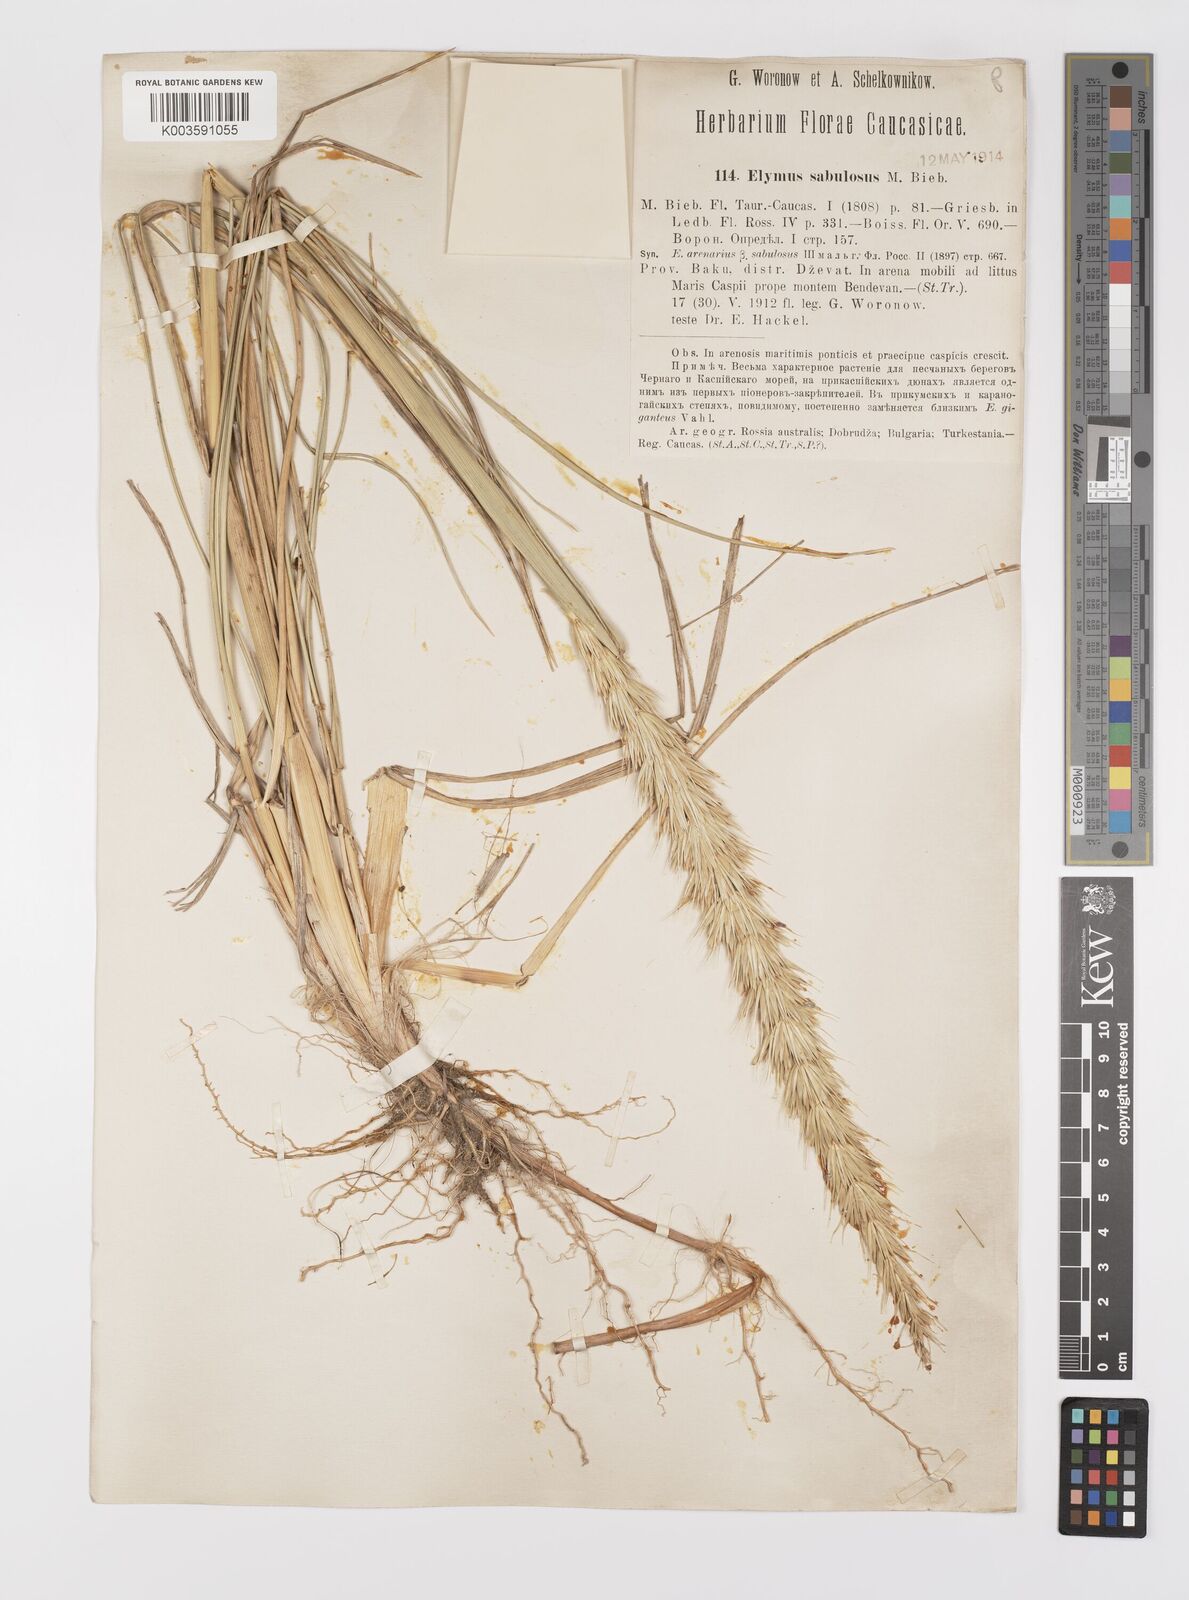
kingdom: Plantae
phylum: Tracheophyta
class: Liliopsida
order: Poales
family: Poaceae
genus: Leymus
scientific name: Leymus racemosus
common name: Mammoth wildrye
